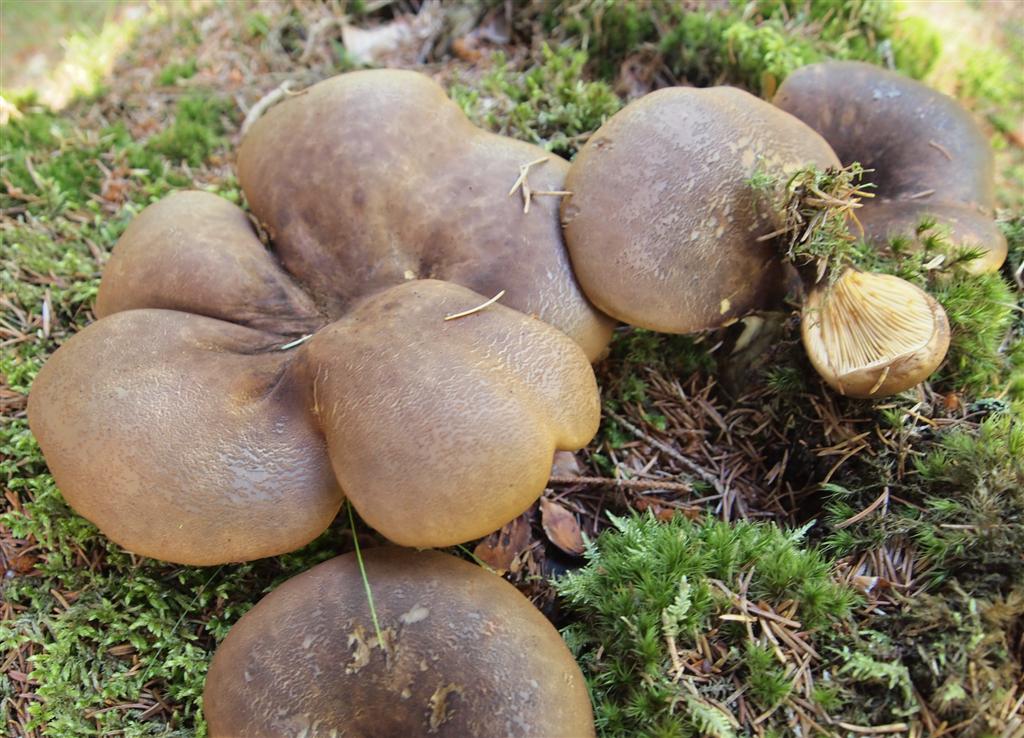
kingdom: Fungi
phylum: Basidiomycota
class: Agaricomycetes
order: Boletales
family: Tapinellaceae
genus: Tapinella
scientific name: Tapinella atrotomentosa
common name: sortfiltet viftesvamp
